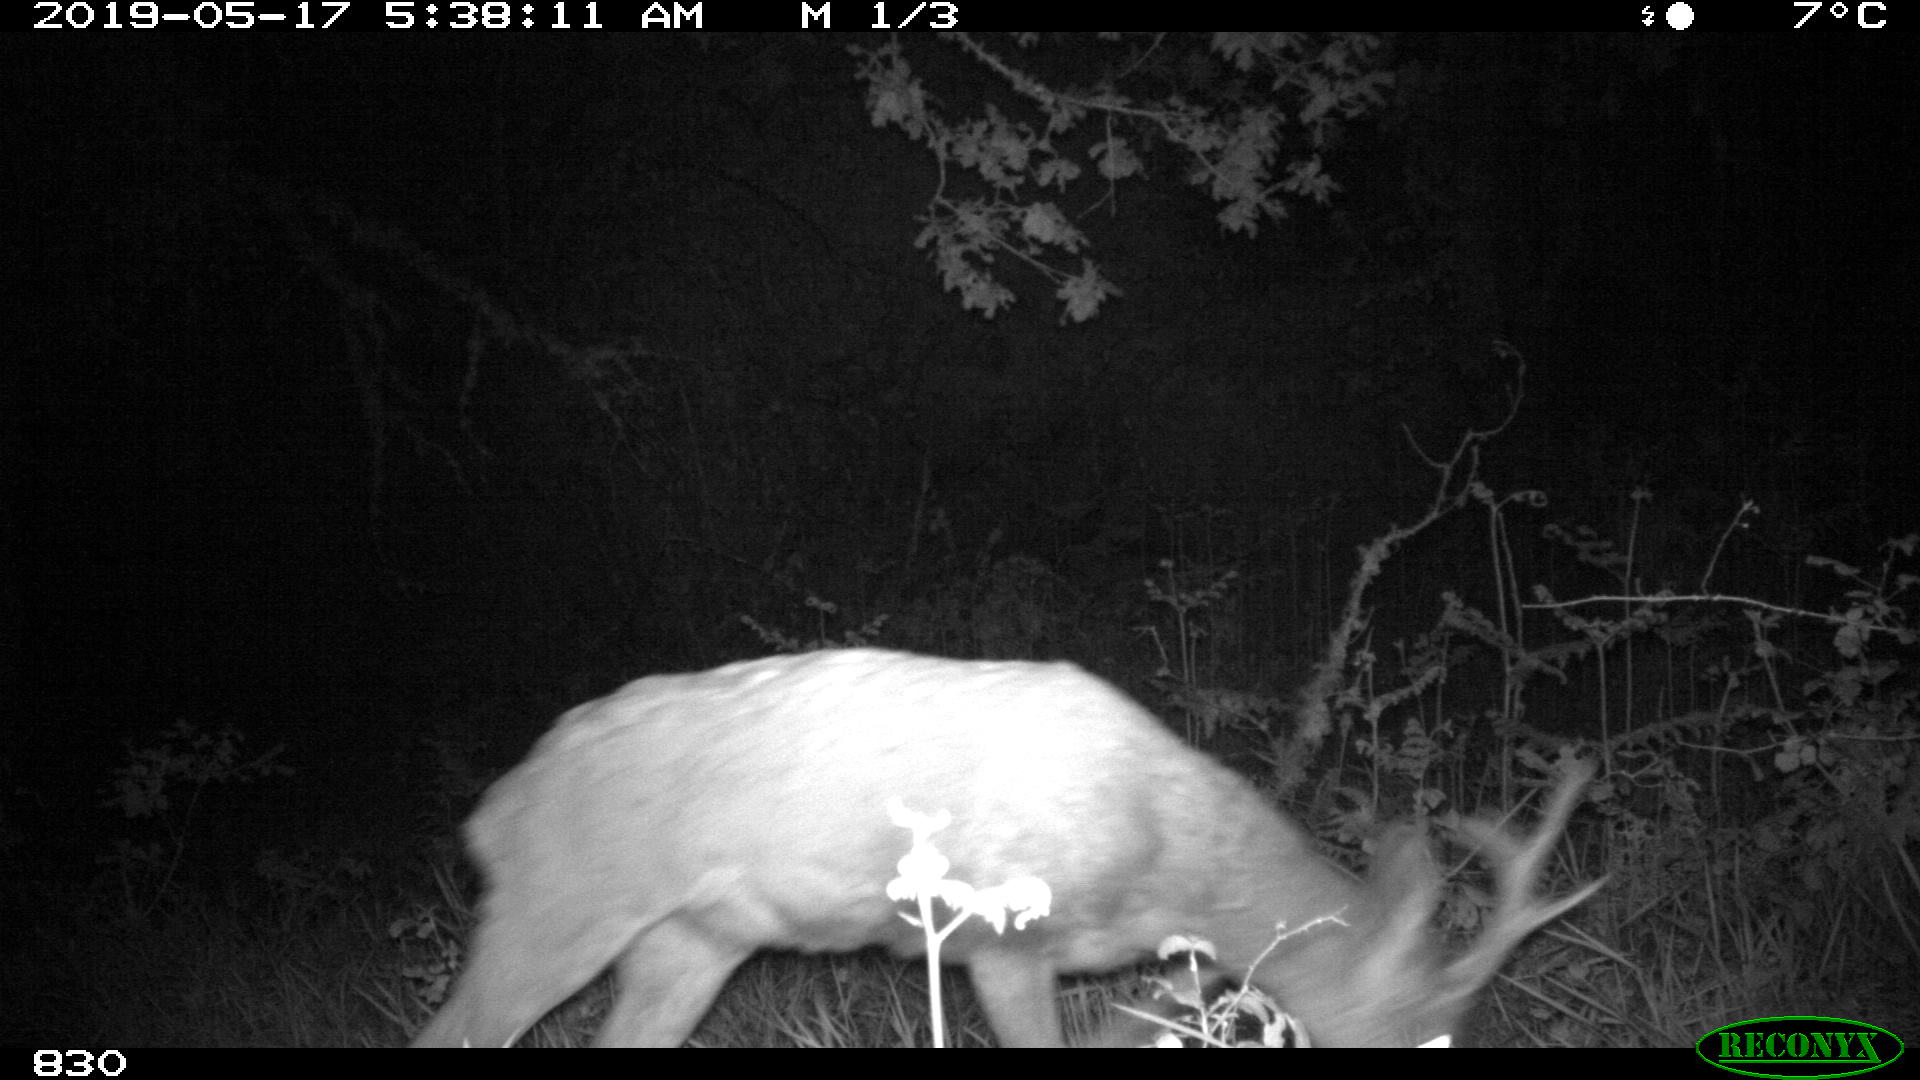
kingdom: Animalia
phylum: Chordata
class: Mammalia
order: Artiodactyla
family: Cervidae
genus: Capreolus
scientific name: Capreolus capreolus
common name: Western roe deer
